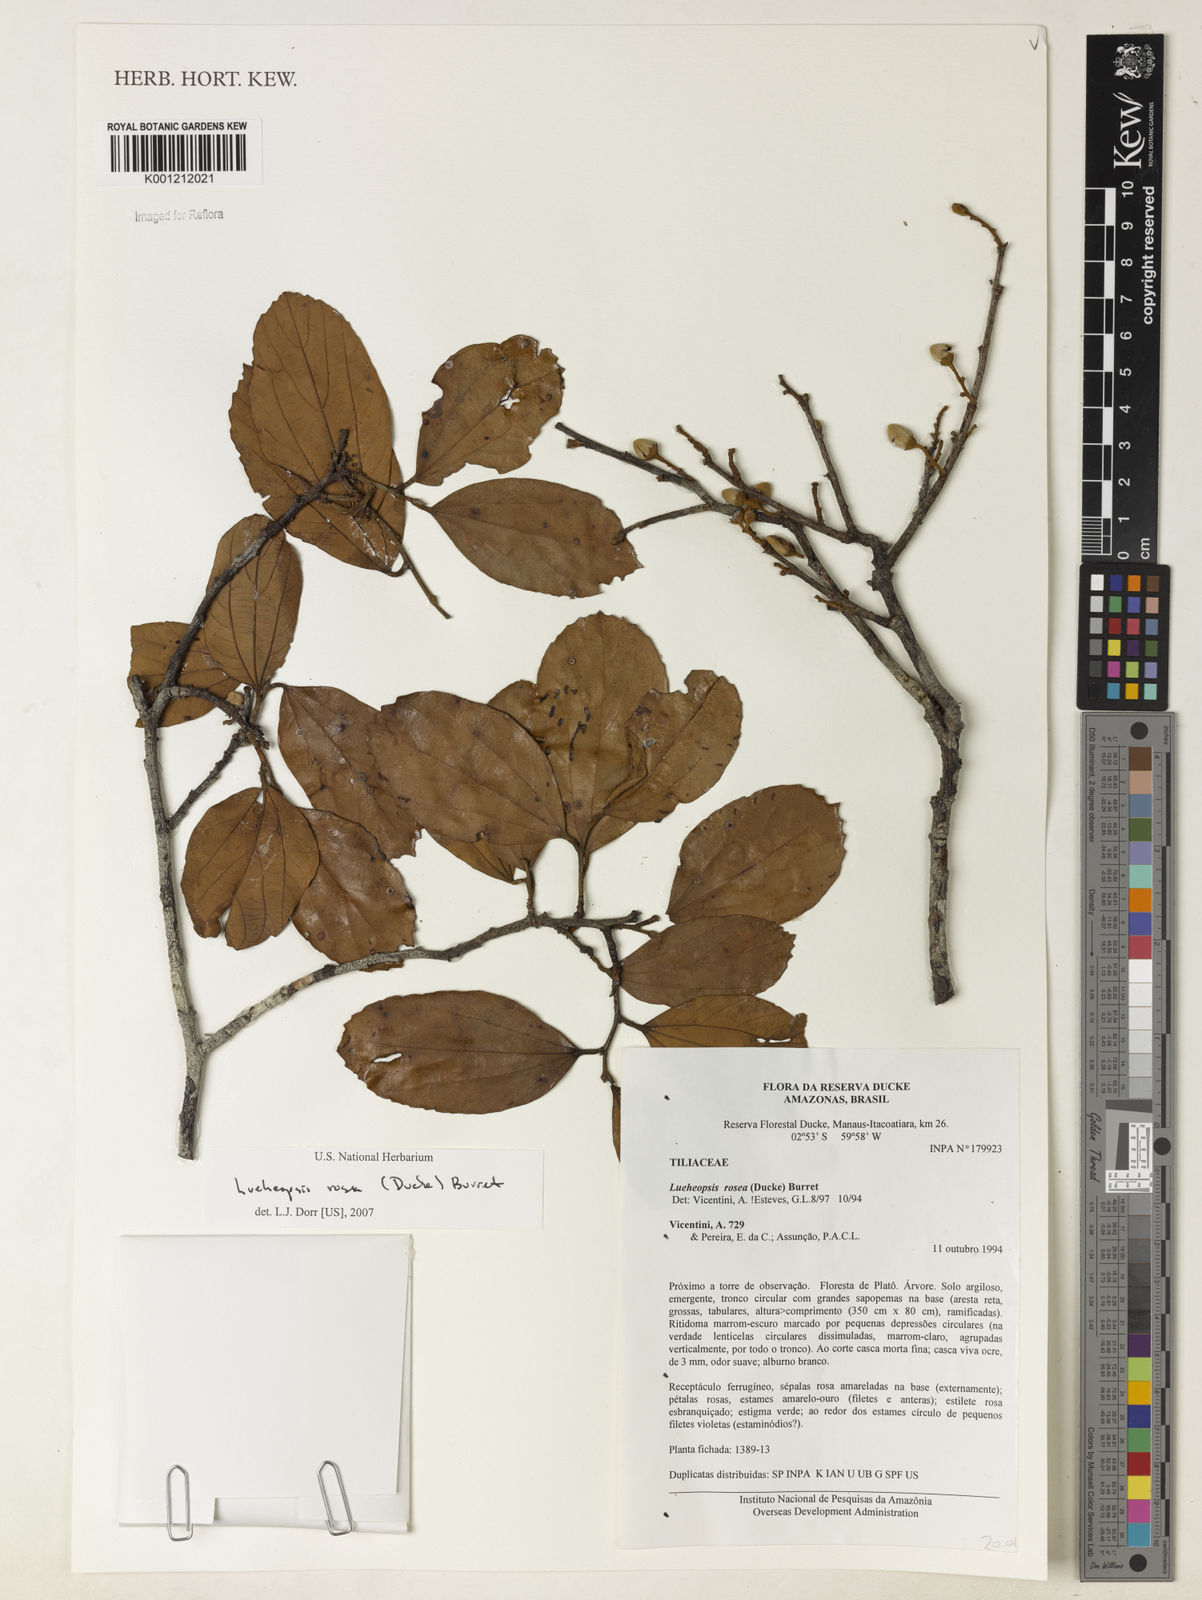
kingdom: Plantae
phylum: Tracheophyta
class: Magnoliopsida
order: Malvales
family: Malvaceae
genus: Lueheopsis
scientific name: Lueheopsis rosea
